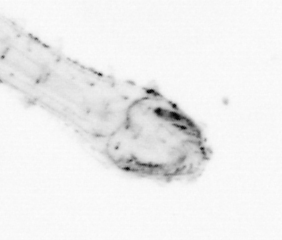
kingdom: Animalia
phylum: Chaetognatha
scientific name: Chaetognatha
